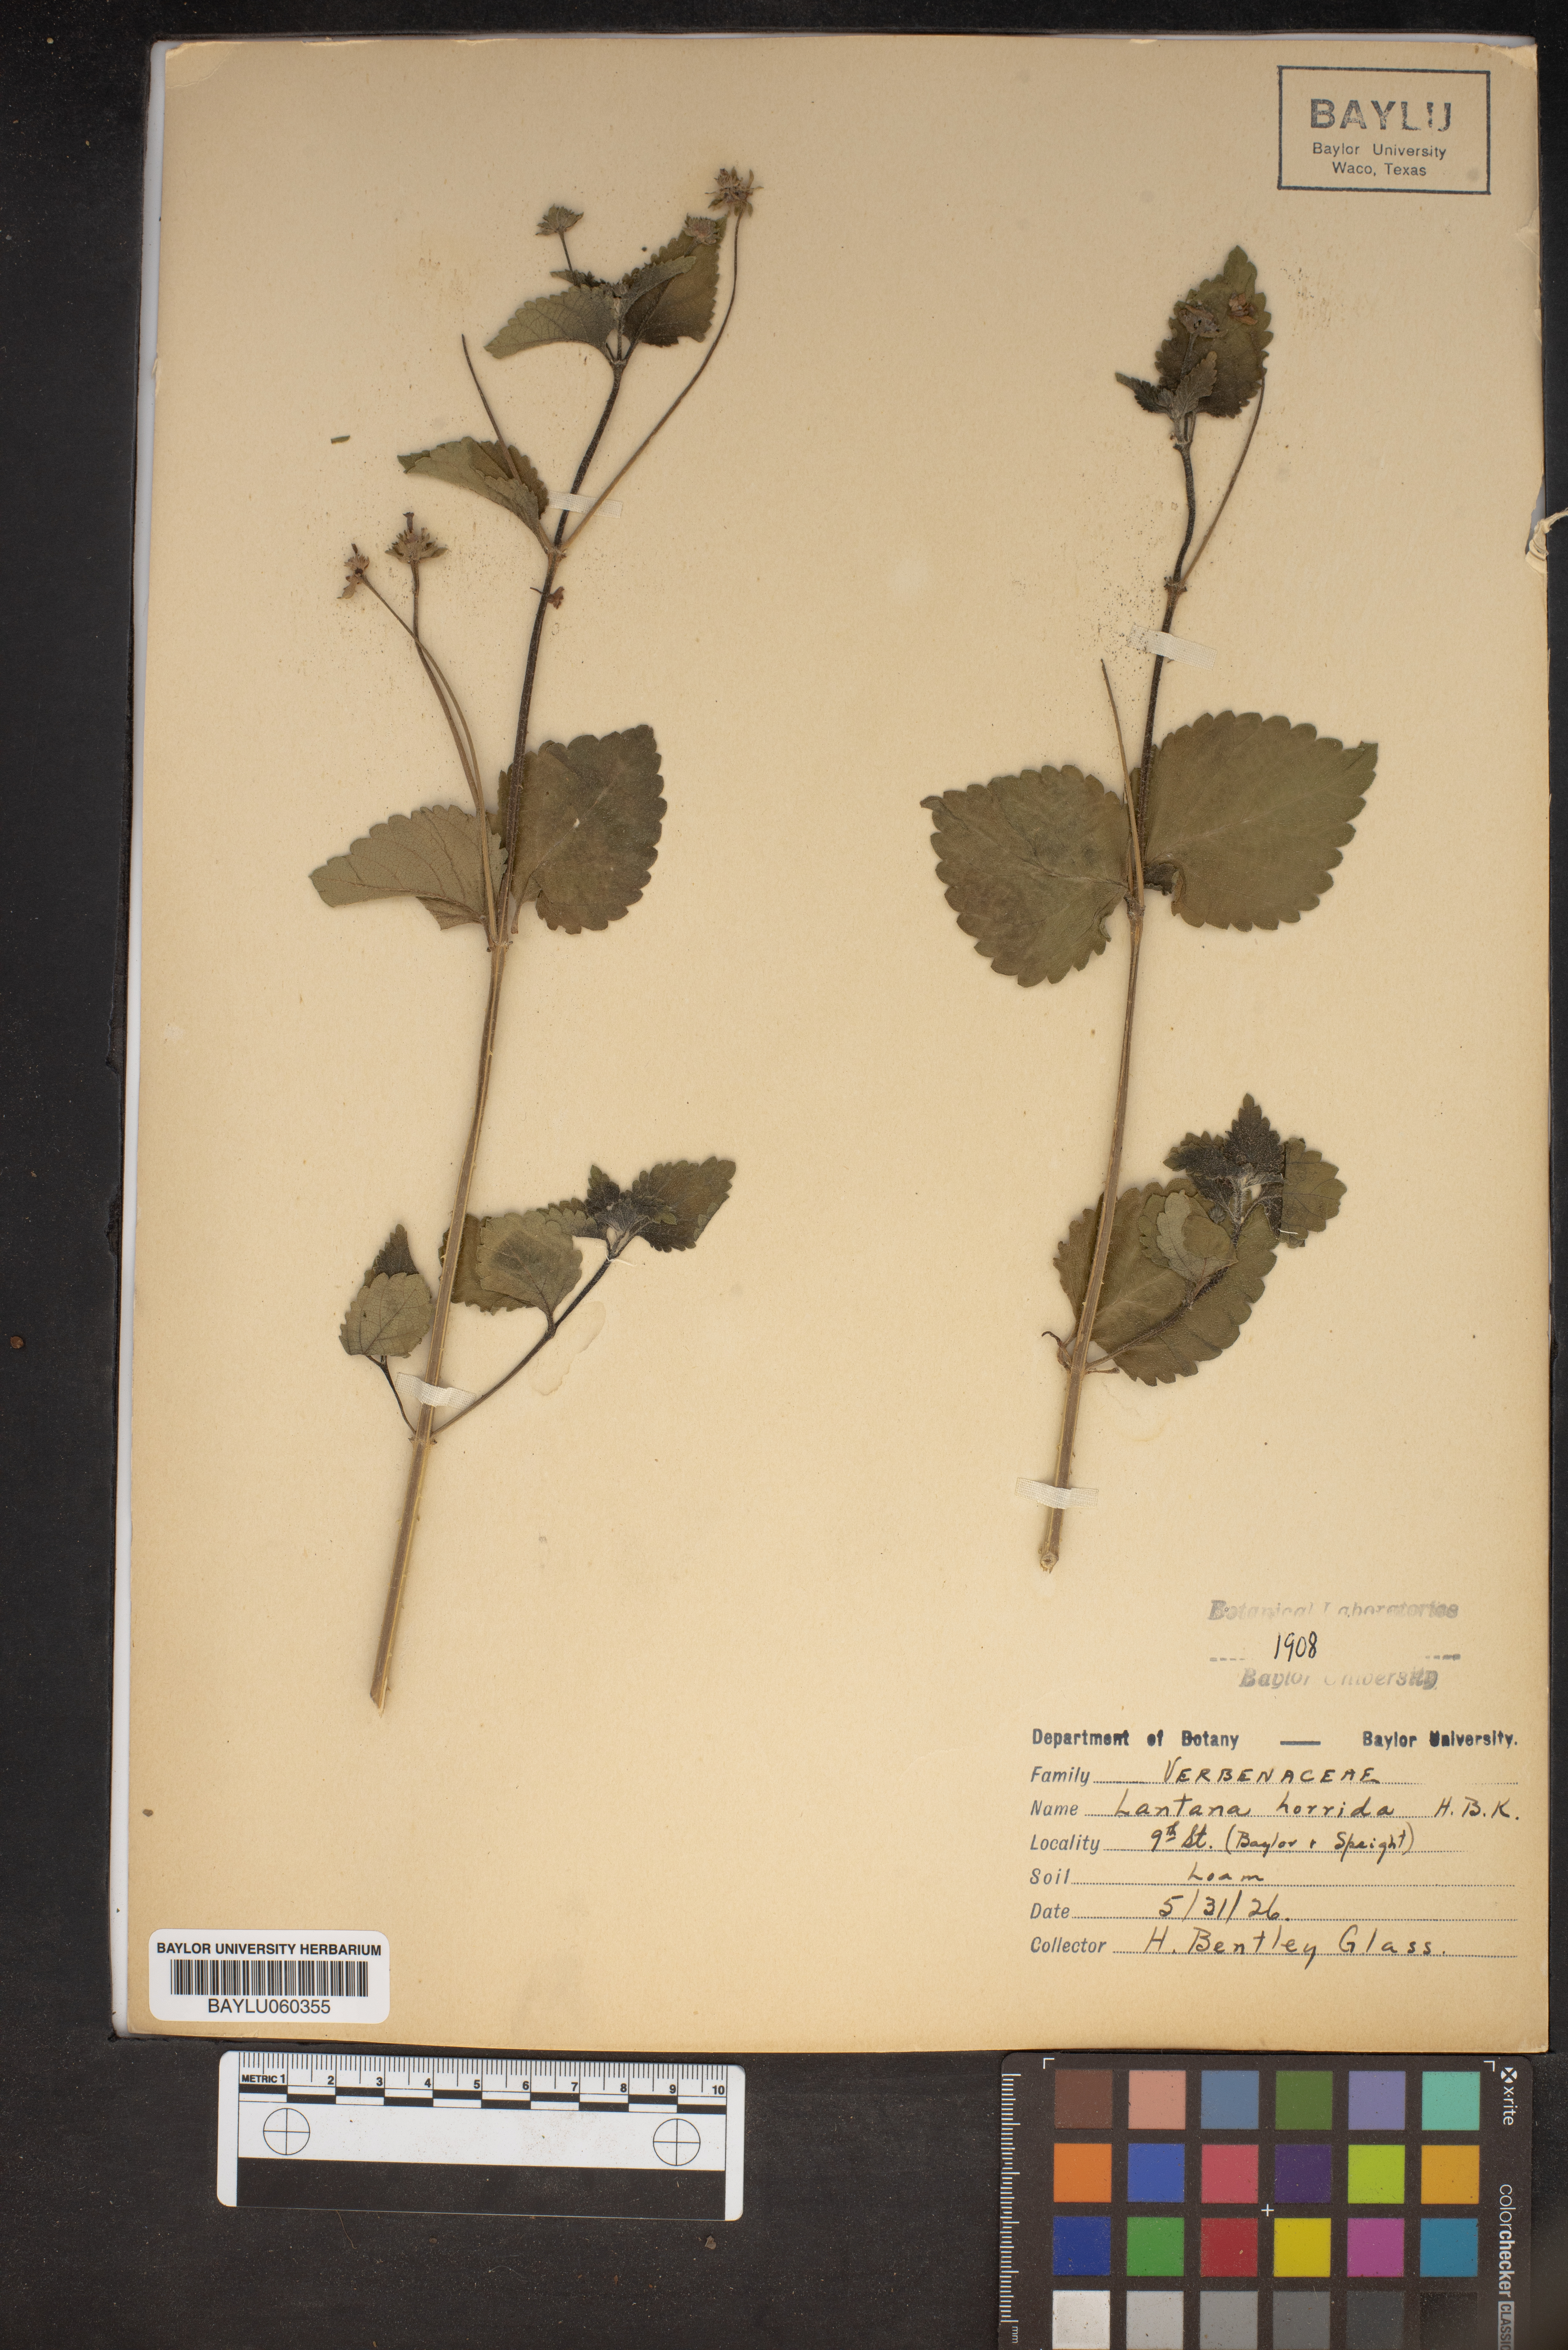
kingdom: Plantae
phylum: Tracheophyta
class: Magnoliopsida
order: Lamiales
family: Verbenaceae
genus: Lantana
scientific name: Lantana horrida
